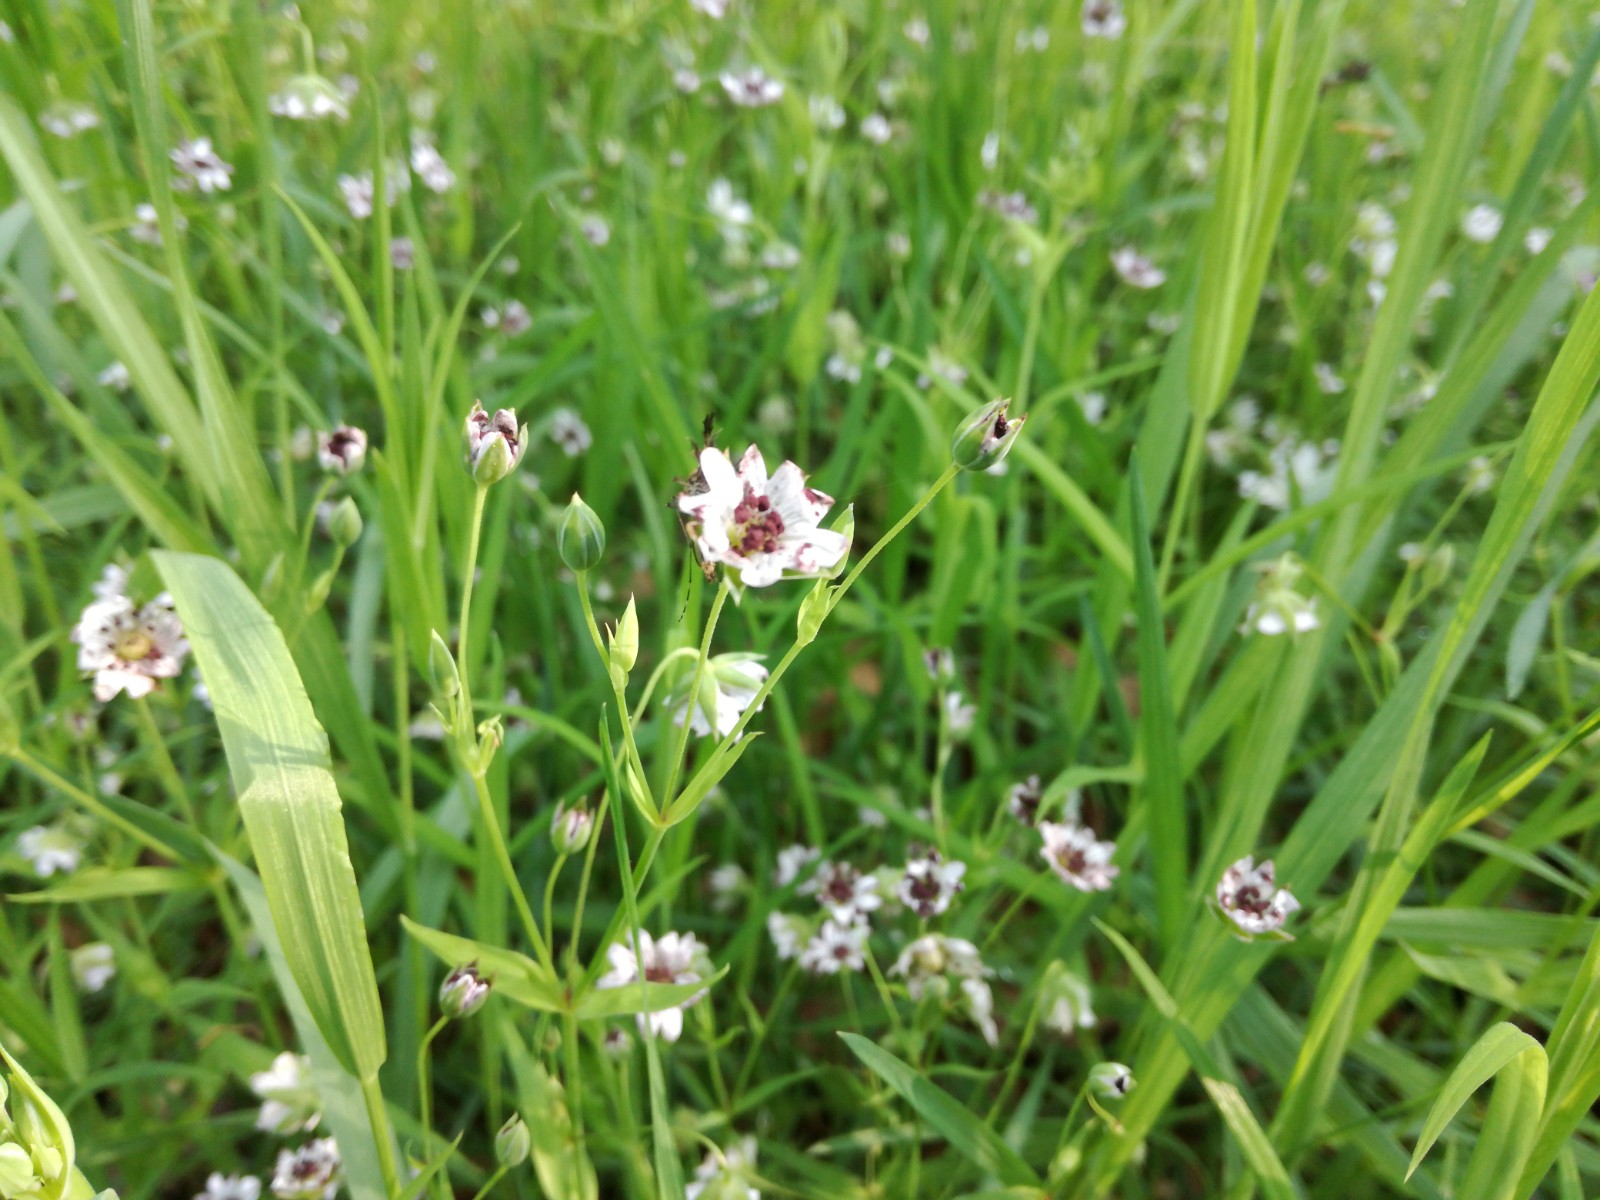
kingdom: Fungi
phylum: Basidiomycota
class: Microbotryomycetes
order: Microbotryales
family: Microbotryaceae
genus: Microbotryum
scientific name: Microbotryum stellariae
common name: fladstjerne-støvbladrust
